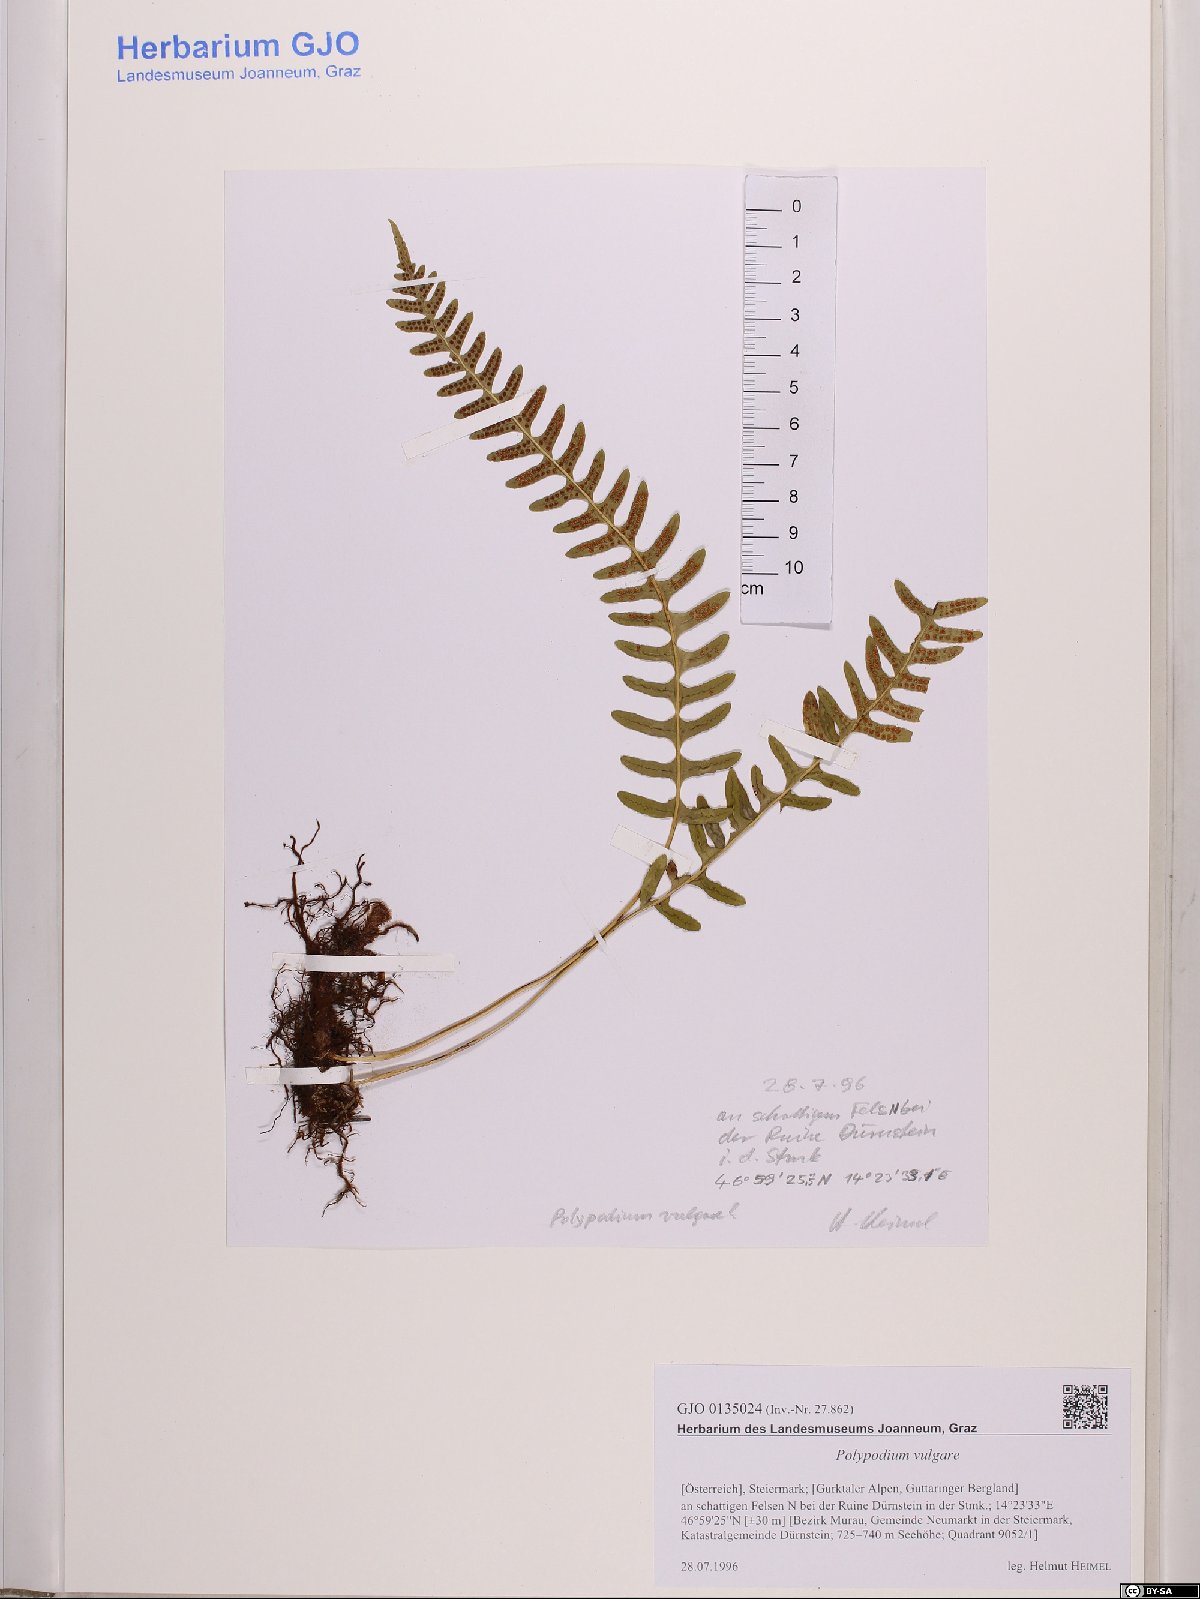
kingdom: Plantae
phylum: Tracheophyta
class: Polypodiopsida
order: Polypodiales
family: Polypodiaceae
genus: Polypodium
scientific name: Polypodium vulgare
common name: Common polypody
